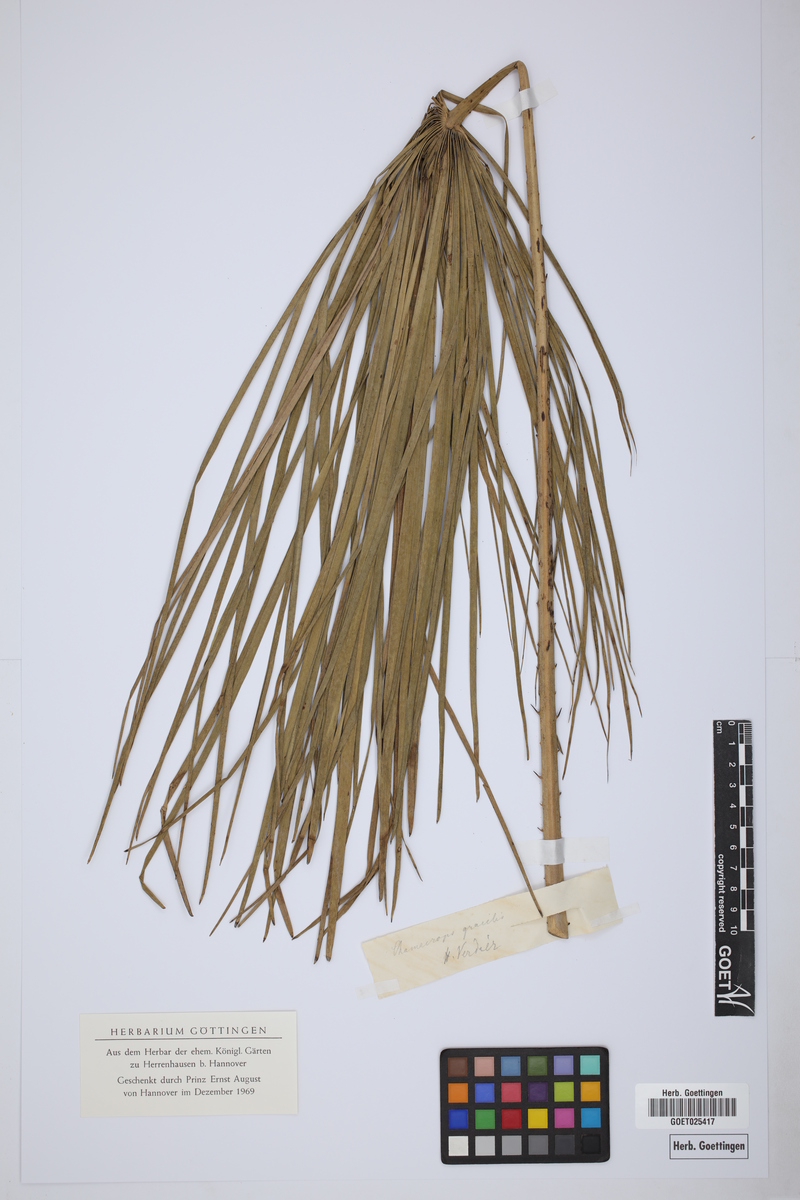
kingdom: Plantae
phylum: Tracheophyta
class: Liliopsida
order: Arecales
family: Arecaceae
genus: Chamaerops
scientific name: Chamaerops gracilis
